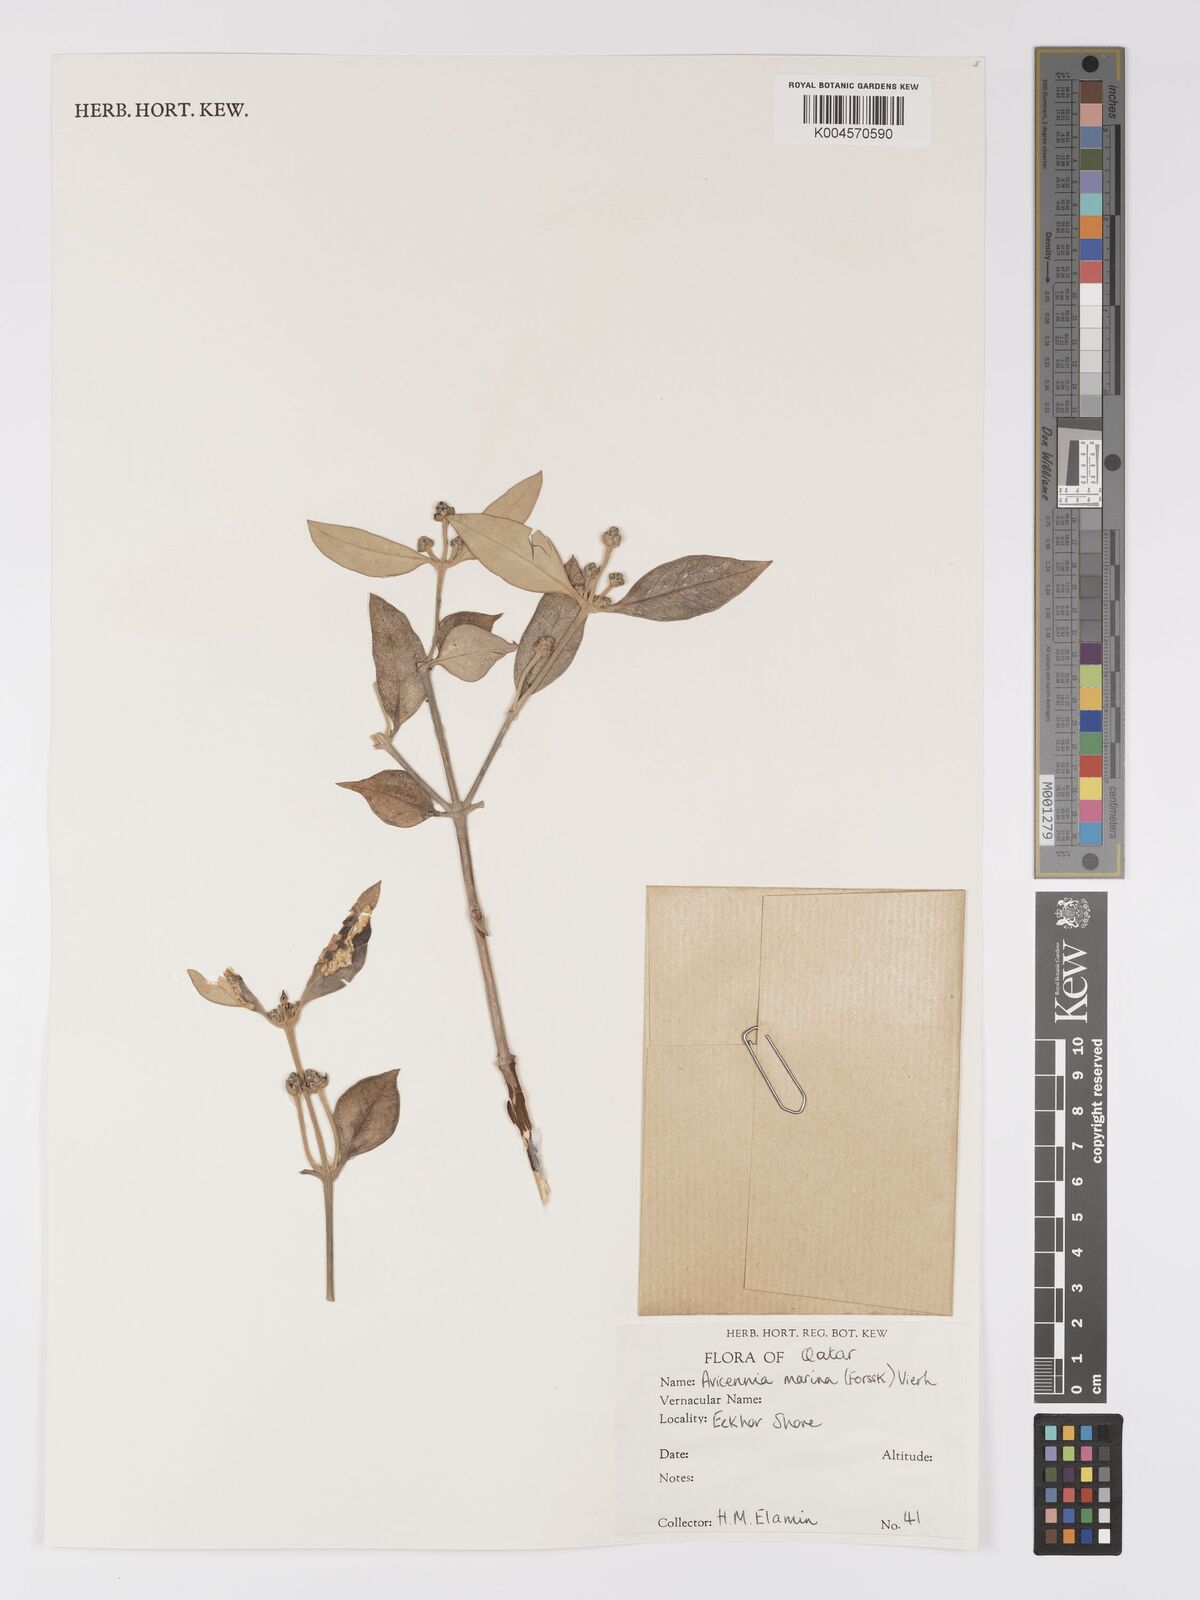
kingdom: Plantae
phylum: Tracheophyta
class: Magnoliopsida
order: Lamiales
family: Acanthaceae
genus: Avicennia
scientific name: Avicennia marina
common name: Gray mangrove
